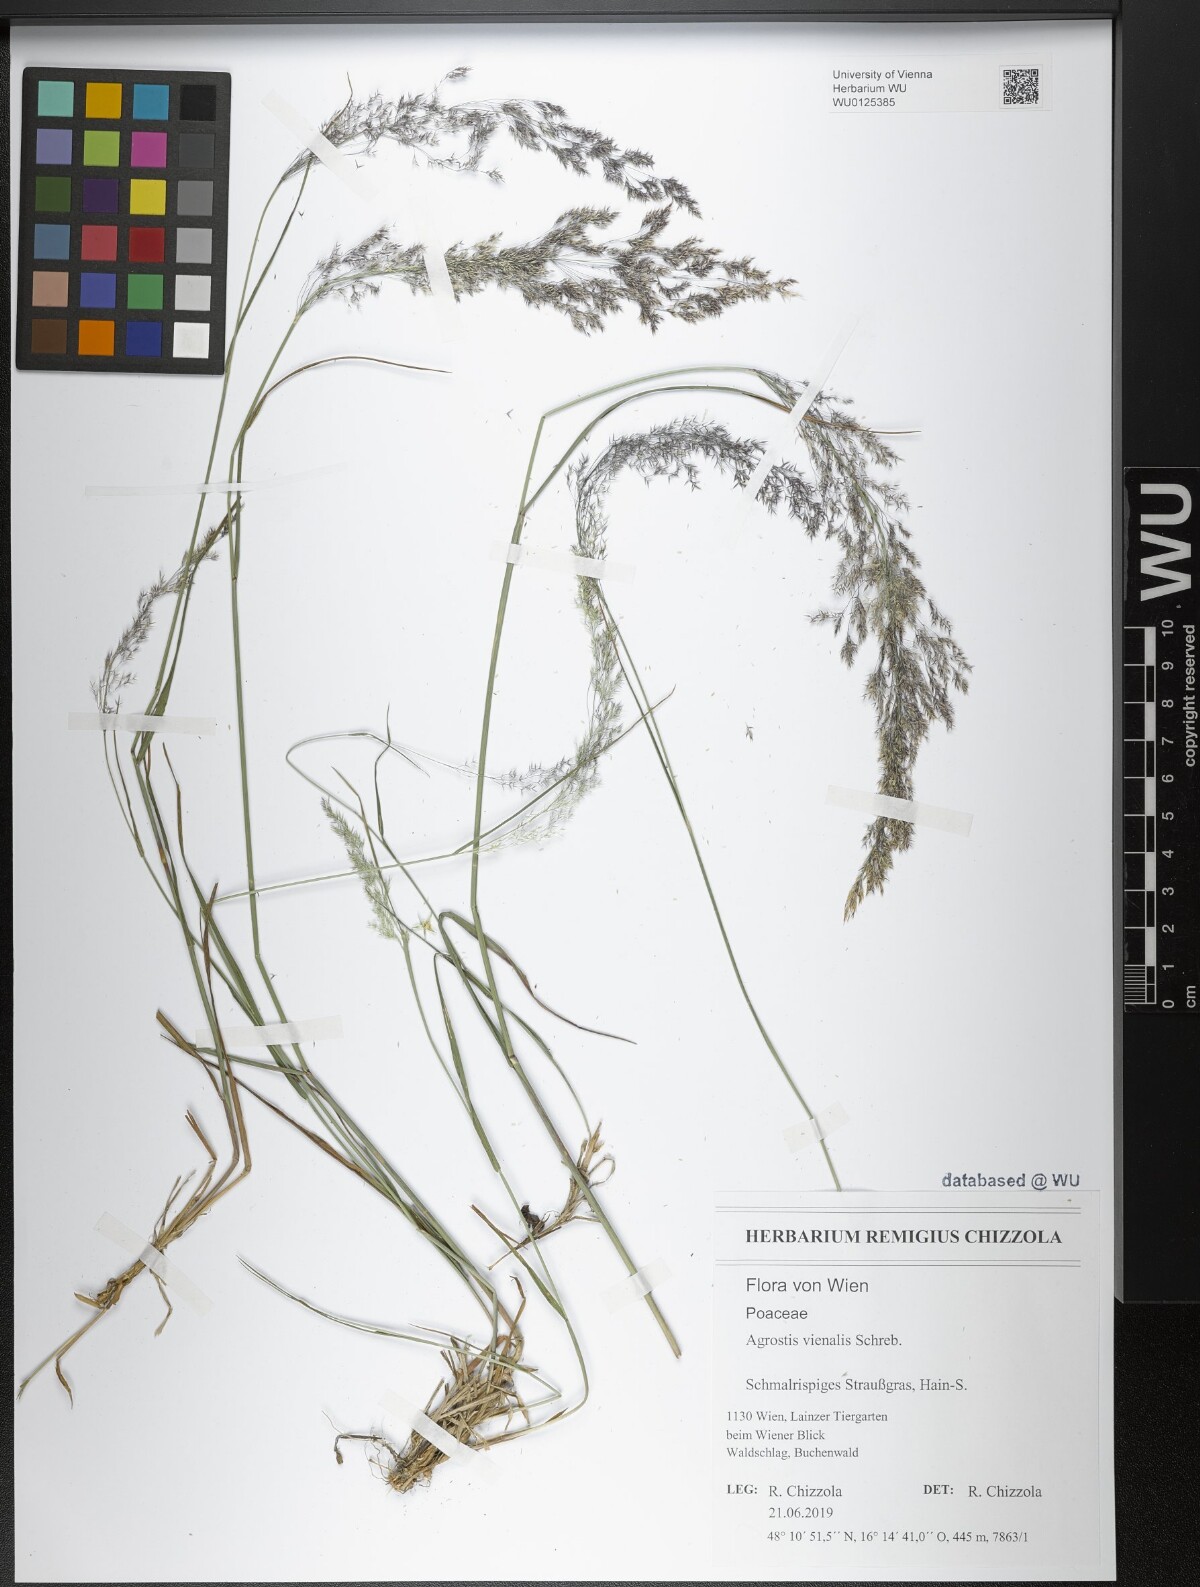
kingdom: Plantae
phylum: Tracheophyta
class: Liliopsida
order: Poales
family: Poaceae
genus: Agrostis
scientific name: Agrostis vinealis
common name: Brown bent
